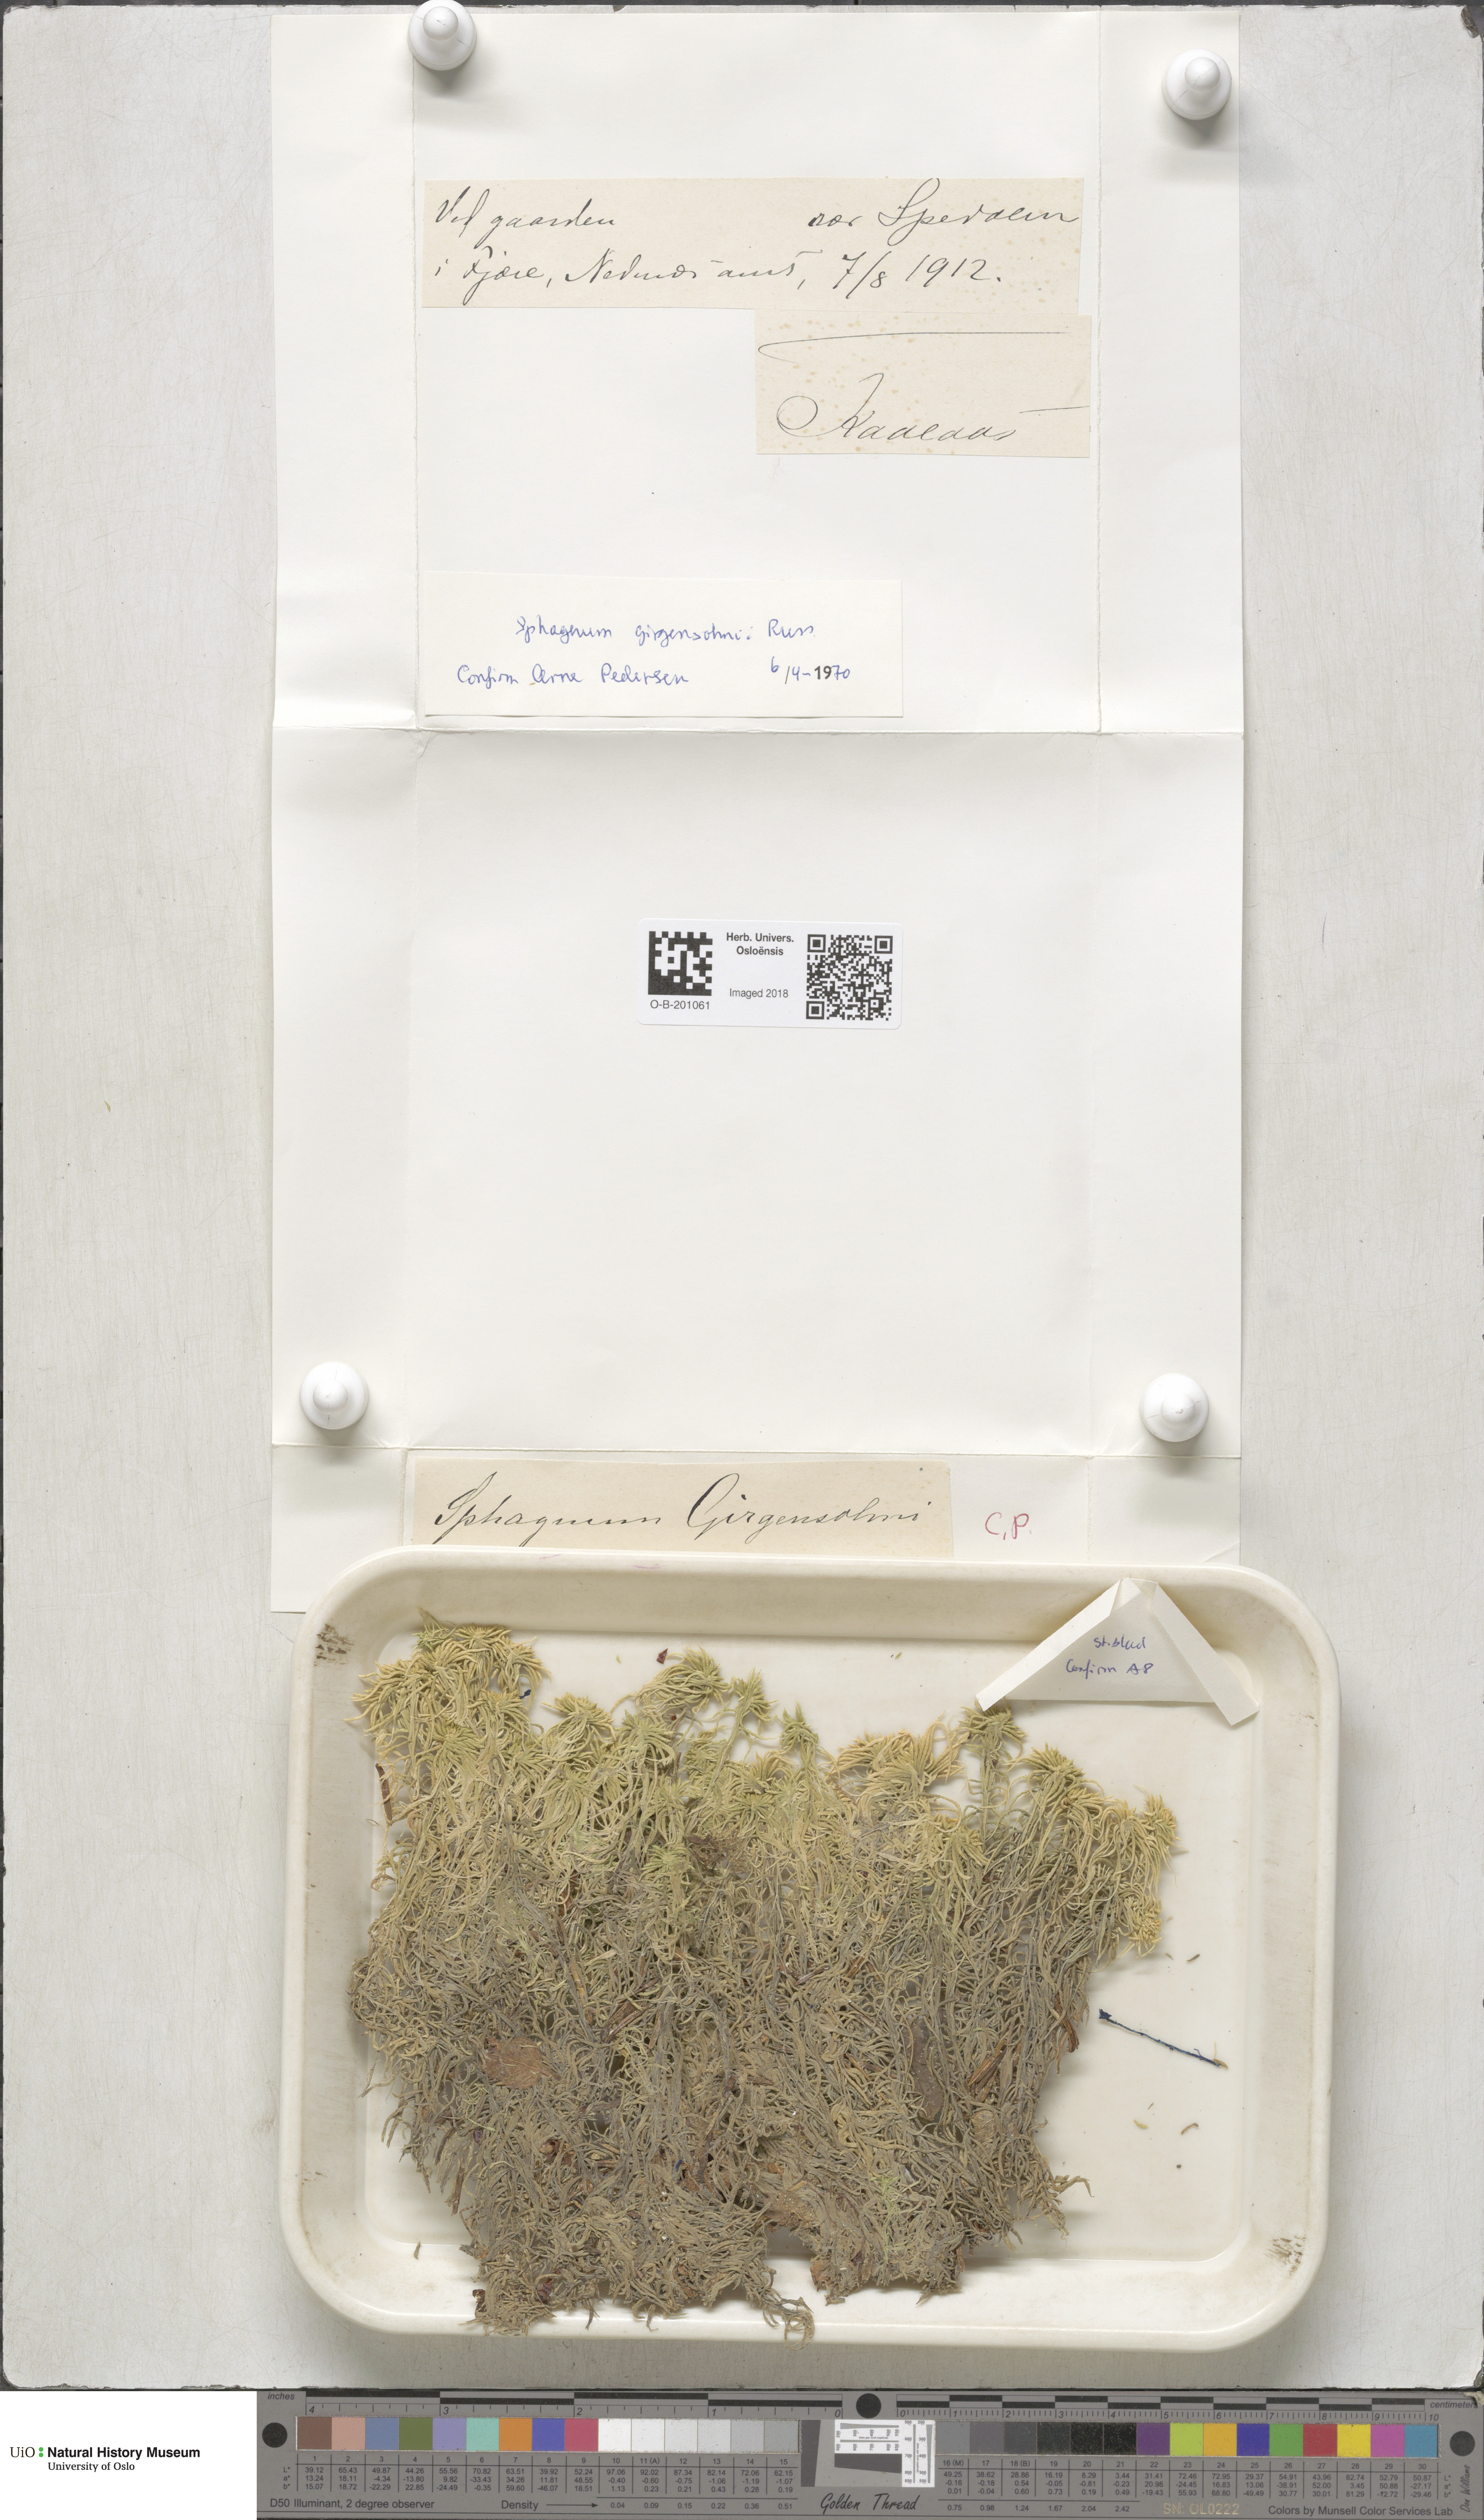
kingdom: Plantae
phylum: Bryophyta
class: Sphagnopsida
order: Sphagnales
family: Sphagnaceae
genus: Sphagnum
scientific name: Sphagnum girgensohnii
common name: Girgensohn's peat moss
